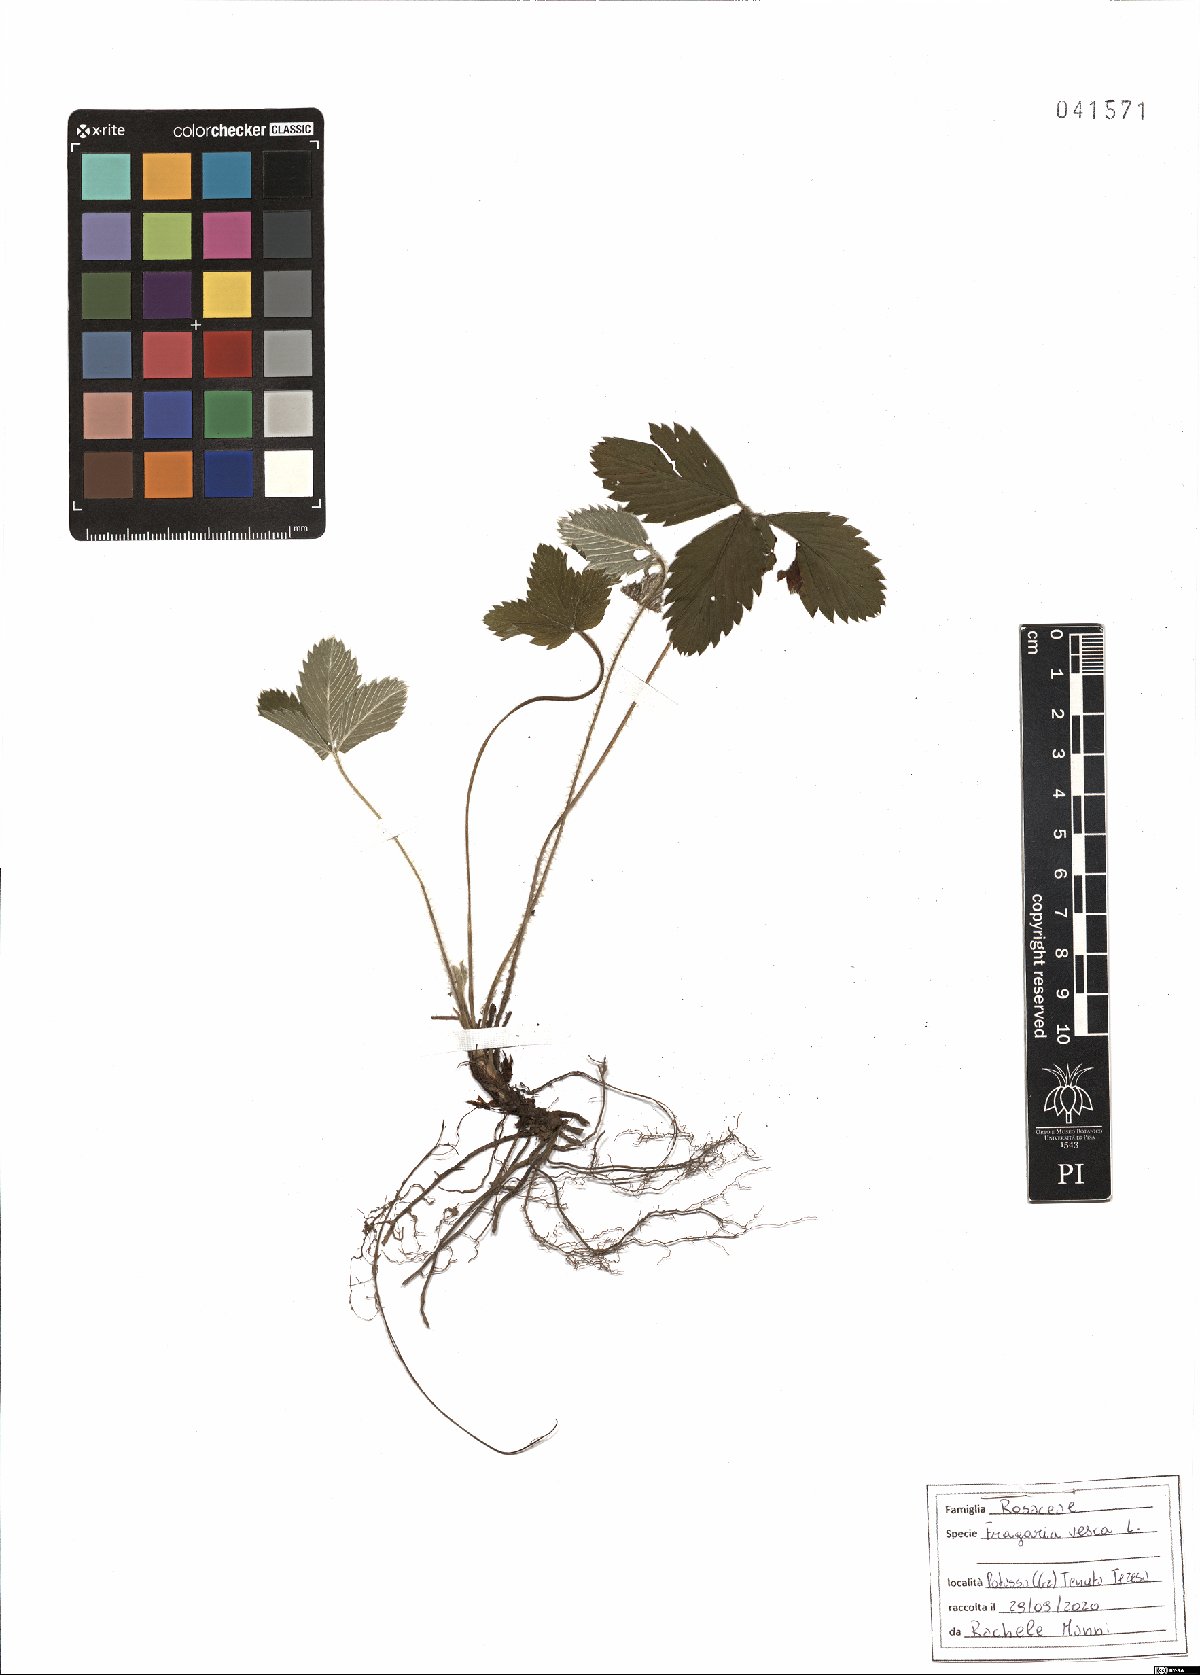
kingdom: Plantae
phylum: Tracheophyta
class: Magnoliopsida
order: Rosales
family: Rosaceae
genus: Fragaria
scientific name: Fragaria vesca
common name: Wild strawberry
